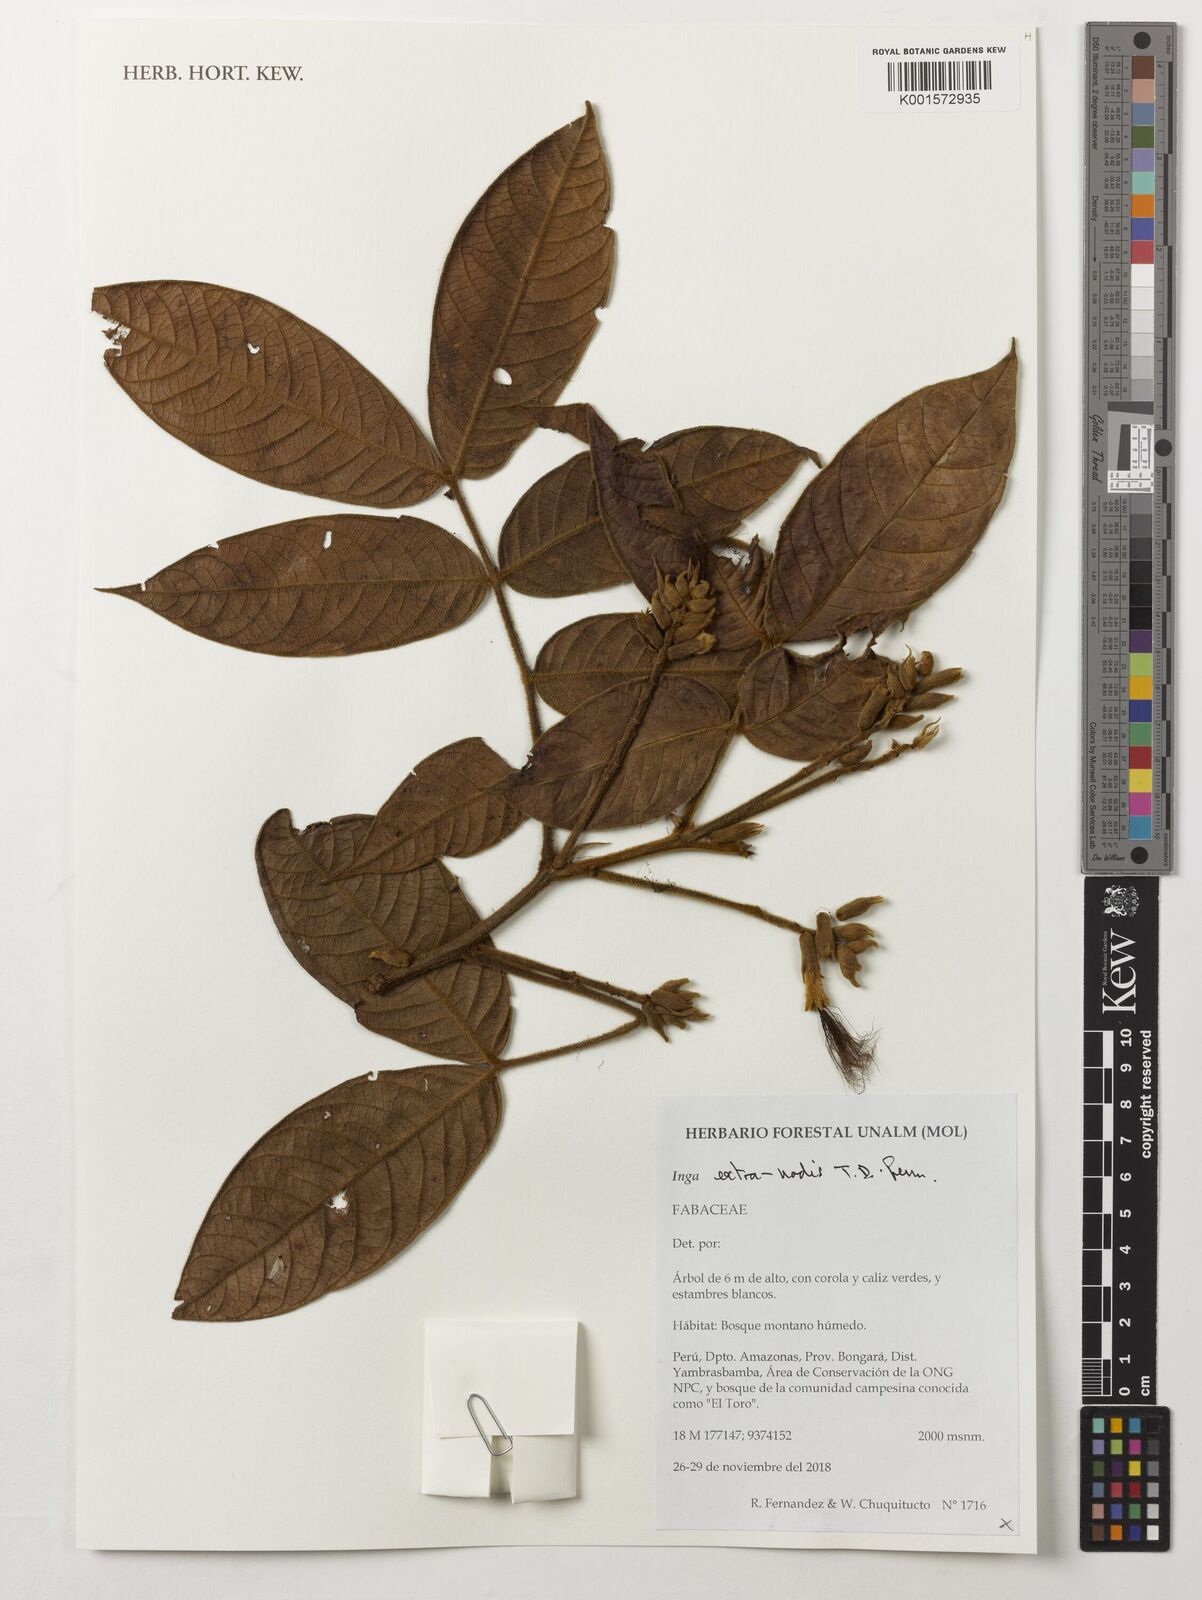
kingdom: Plantae
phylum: Tracheophyta
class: Magnoliopsida
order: Fabales
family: Fabaceae
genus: Inga
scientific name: Inga extra-nodis
